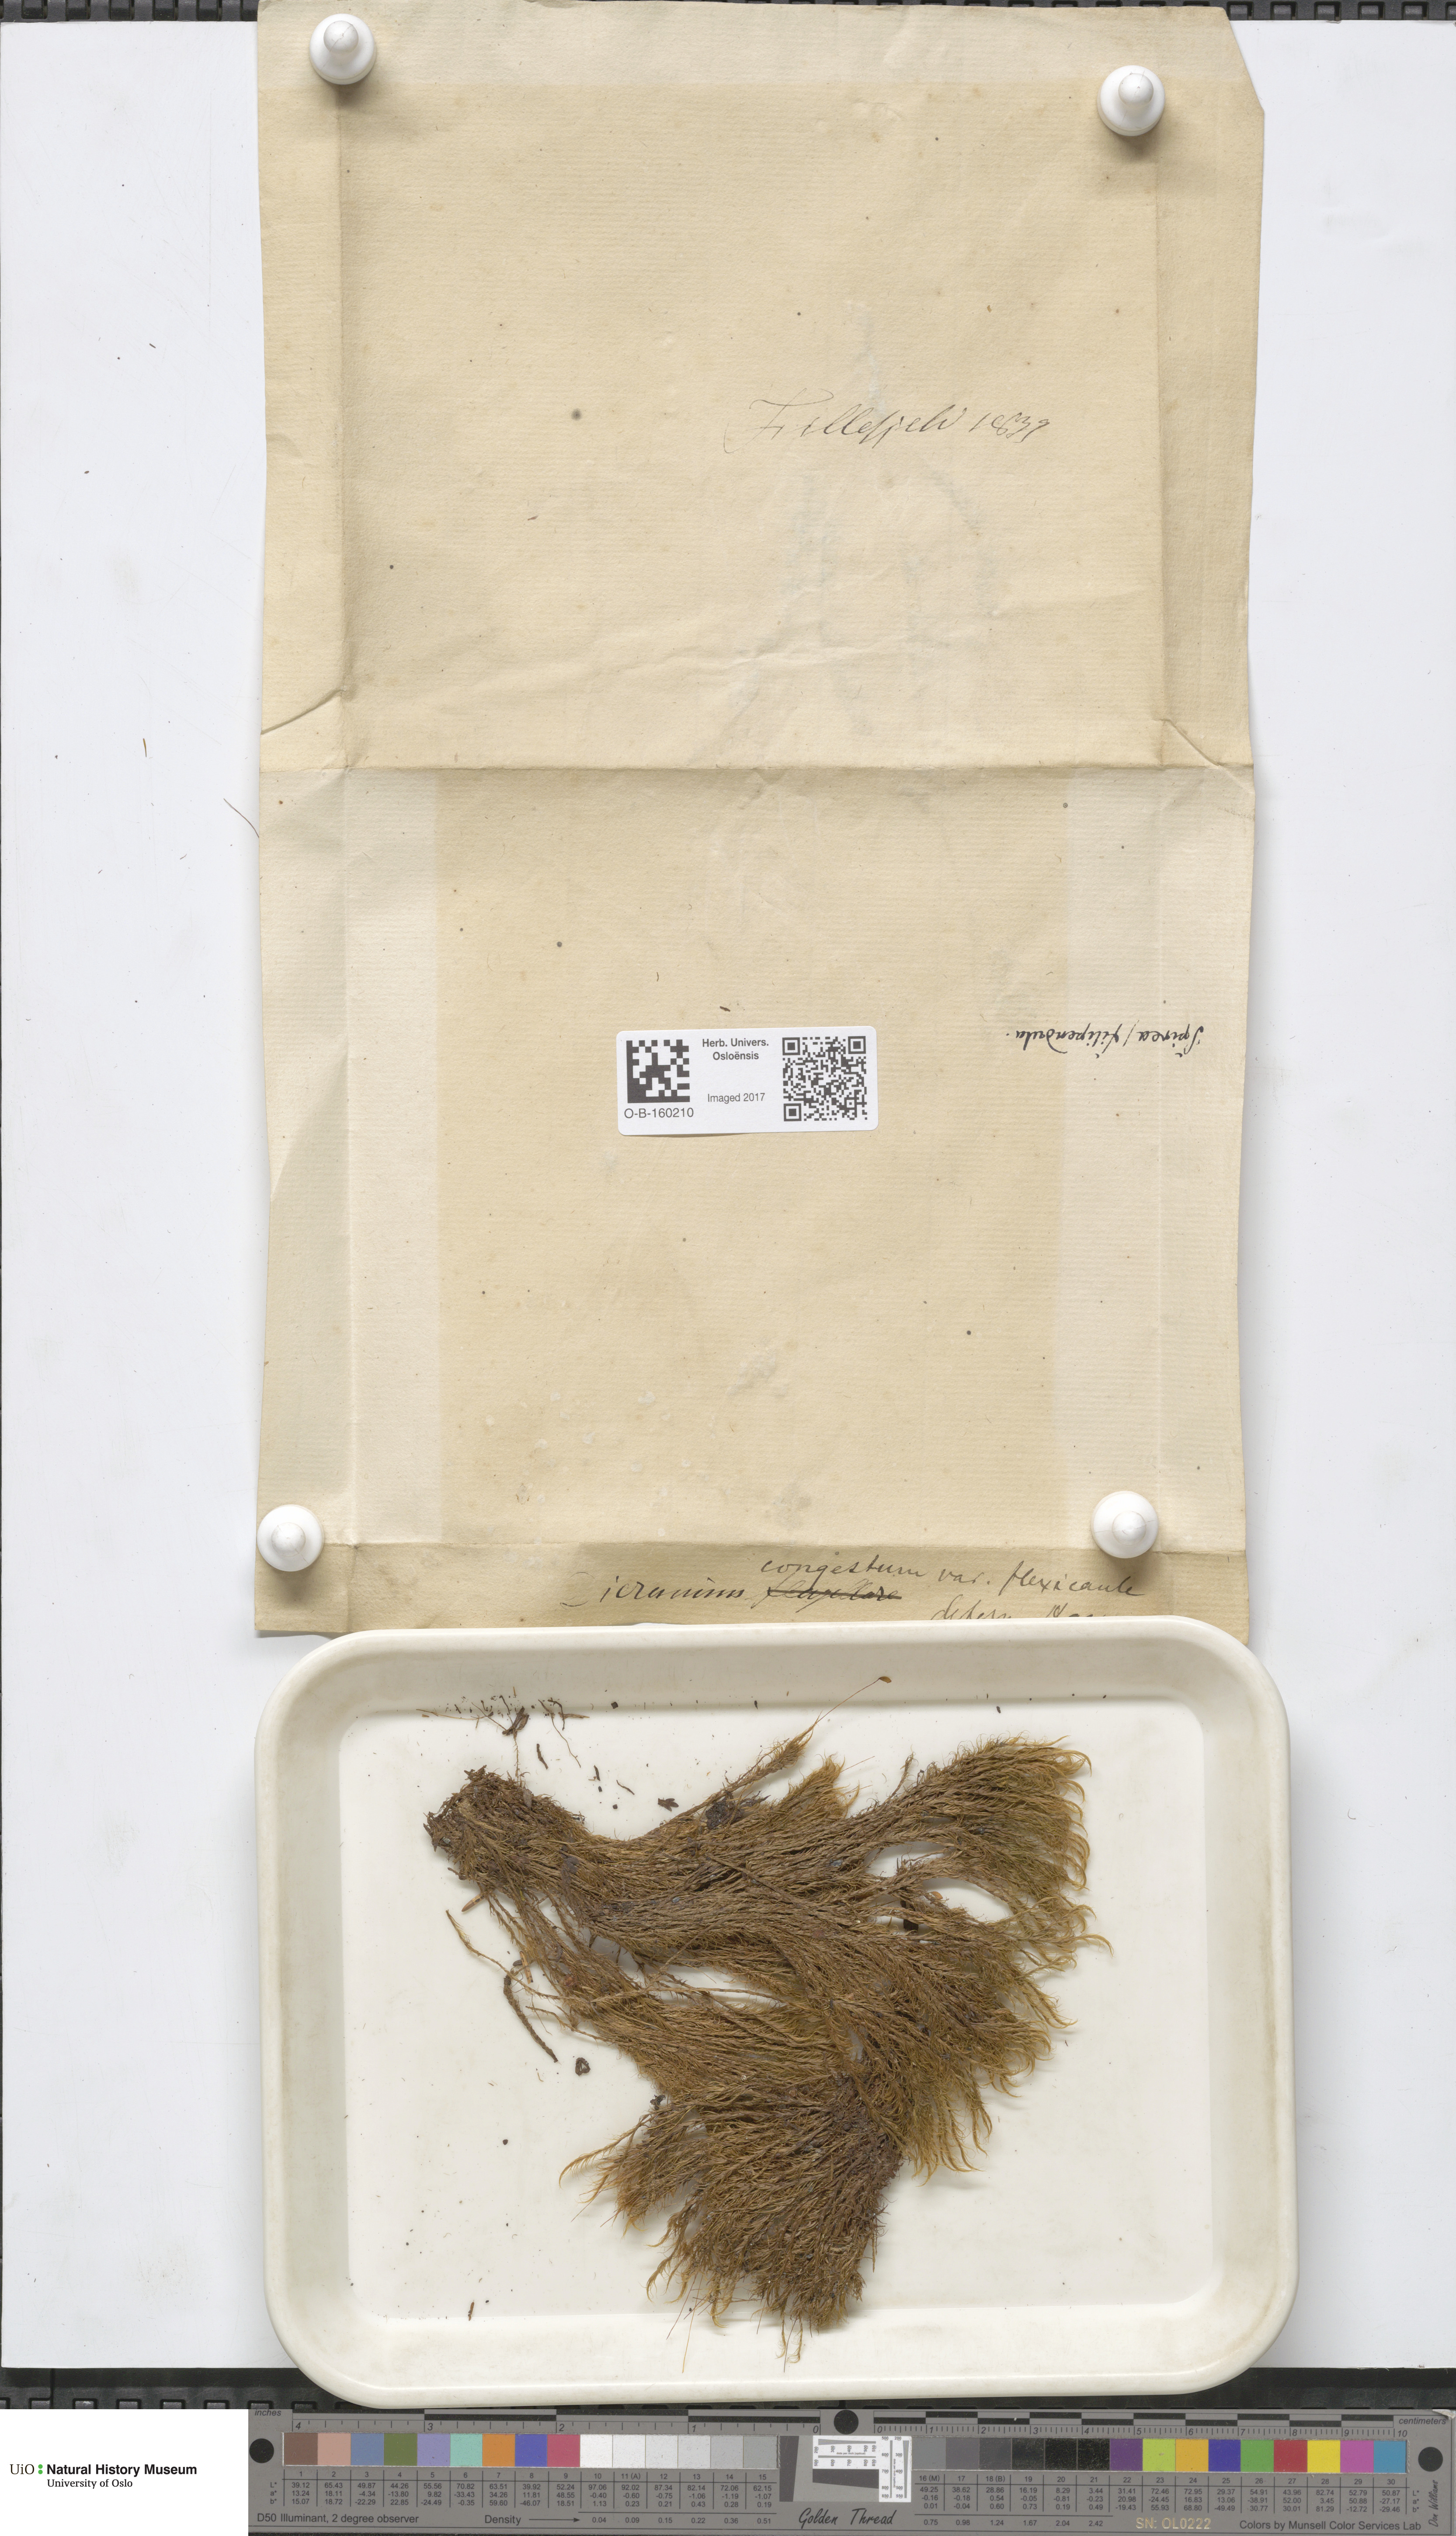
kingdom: Plantae
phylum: Bryophyta
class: Bryopsida
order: Dicranales
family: Dicranaceae
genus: Orthodicranum
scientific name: Orthodicranum flagellare
